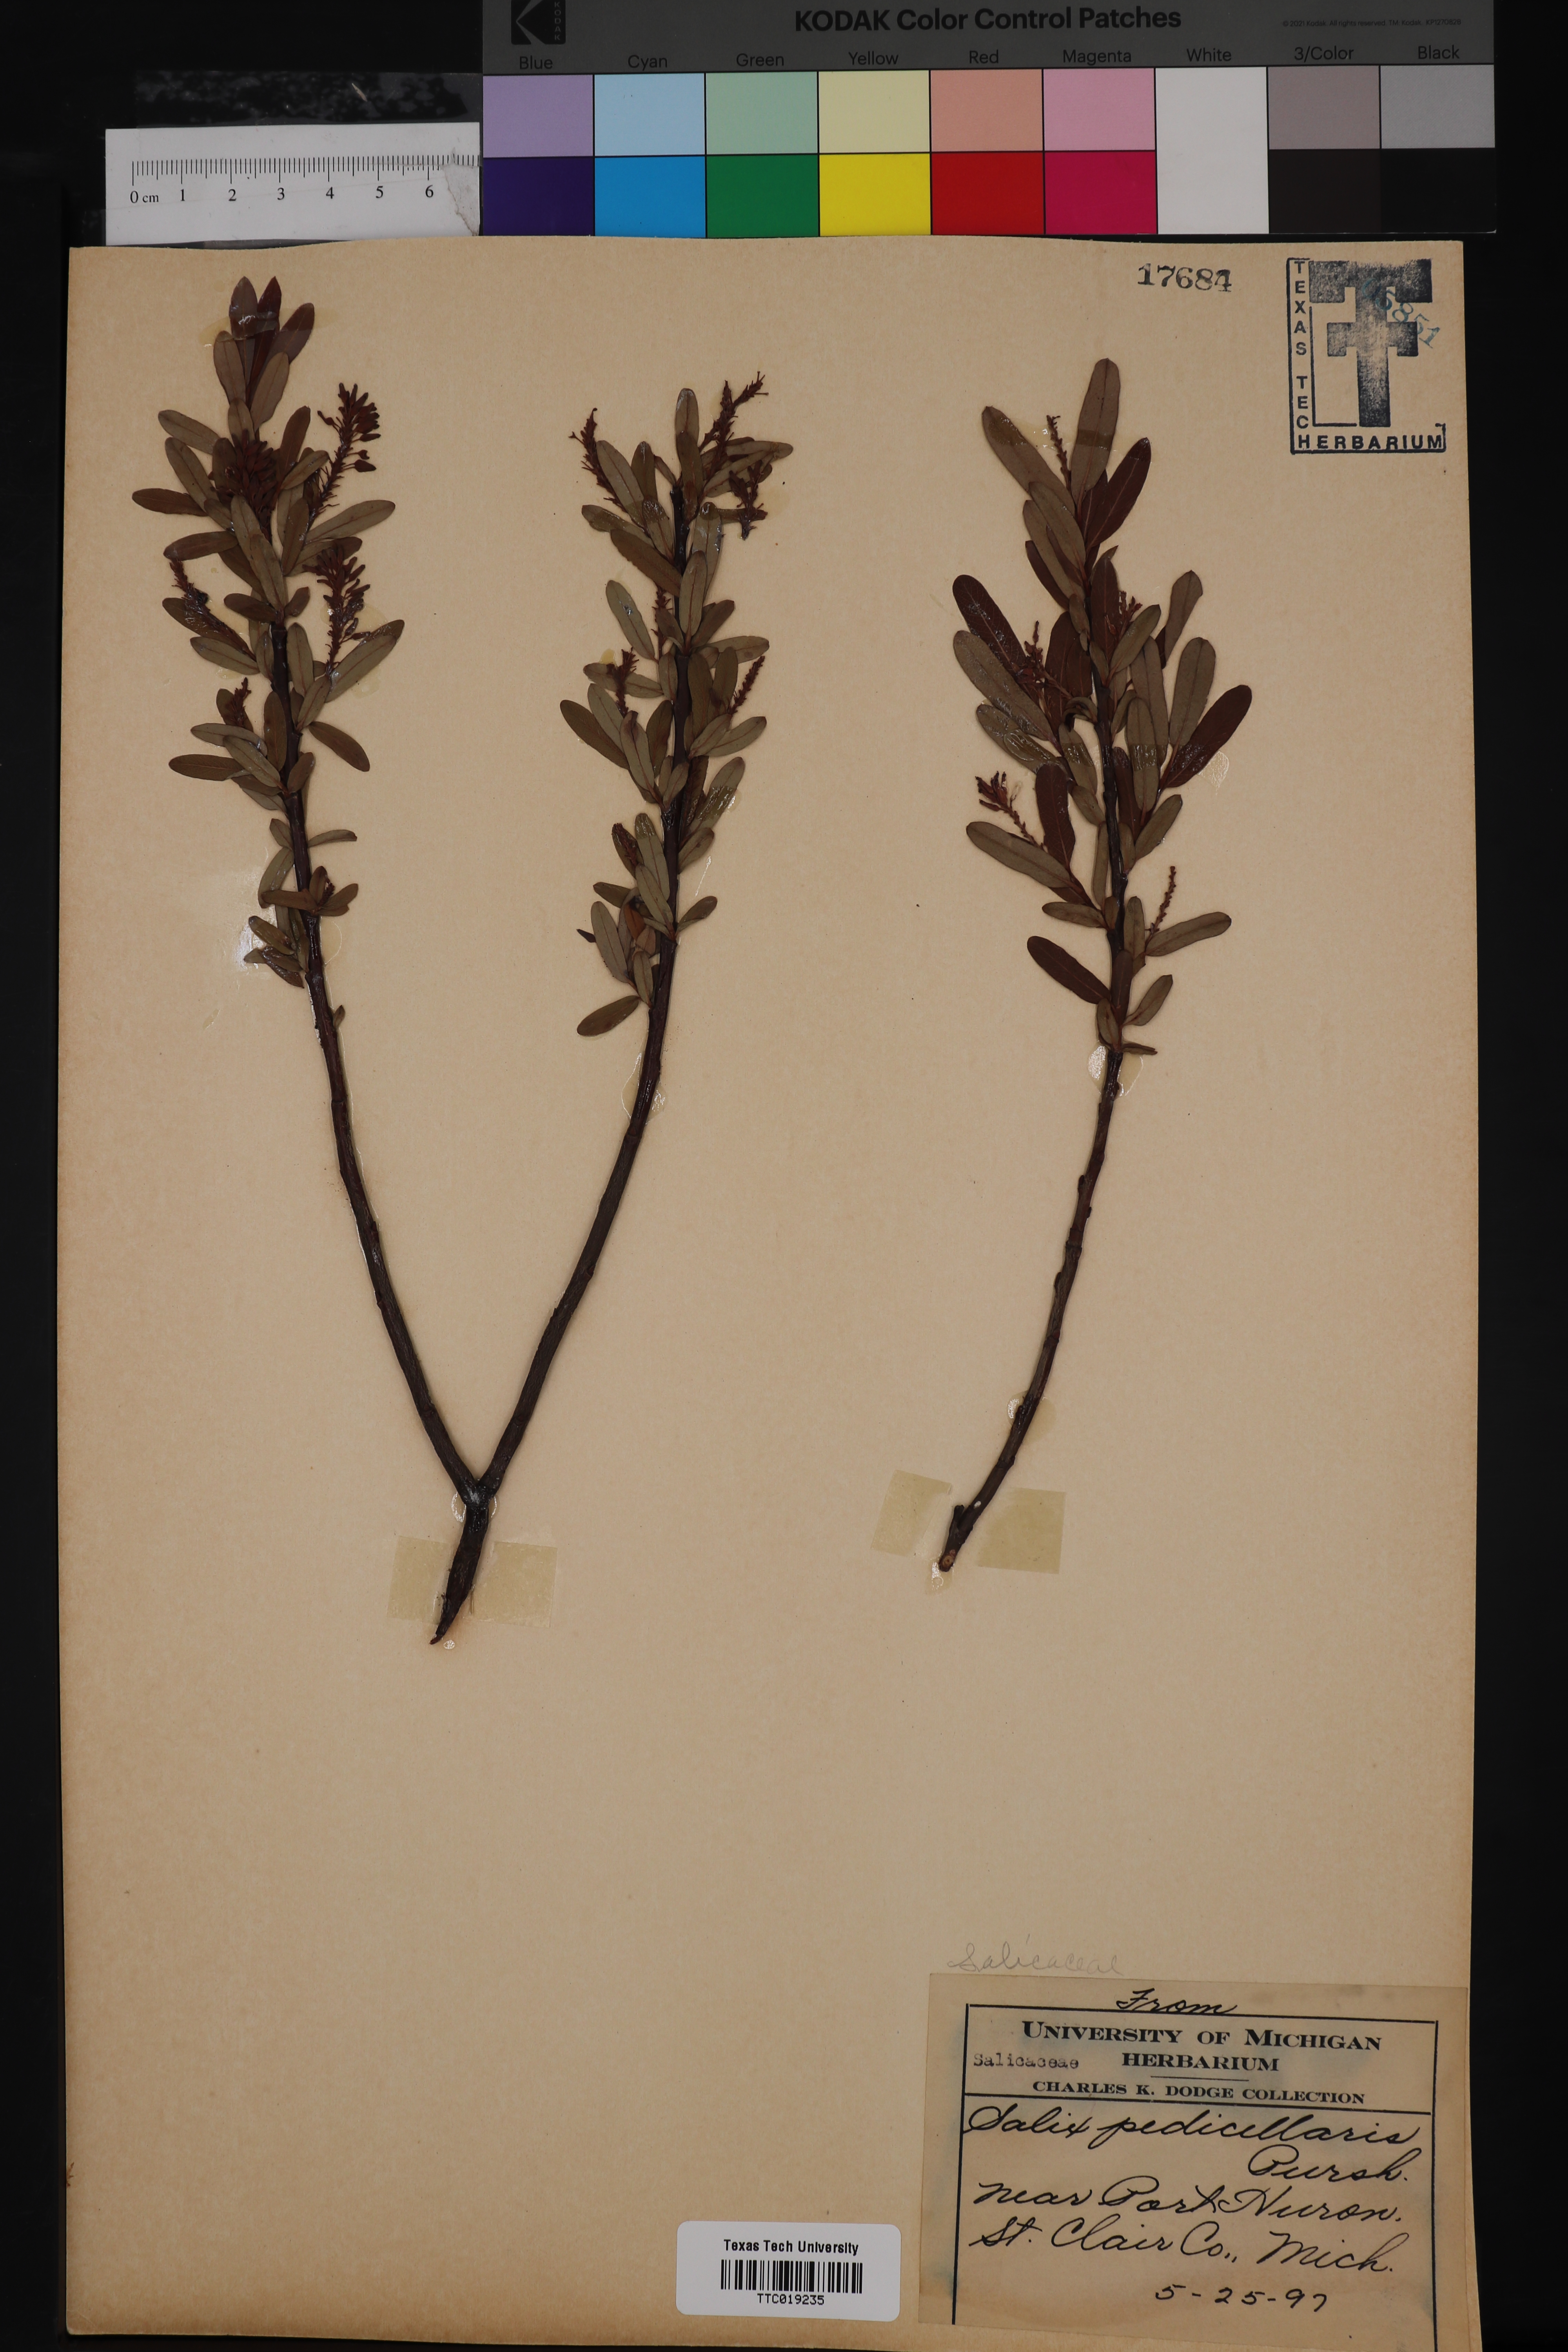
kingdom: Plantae
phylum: Tracheophyta
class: Magnoliopsida
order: Malpighiales
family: Salicaceae
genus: Salix
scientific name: Salix pedicellaris
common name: Bog willow
